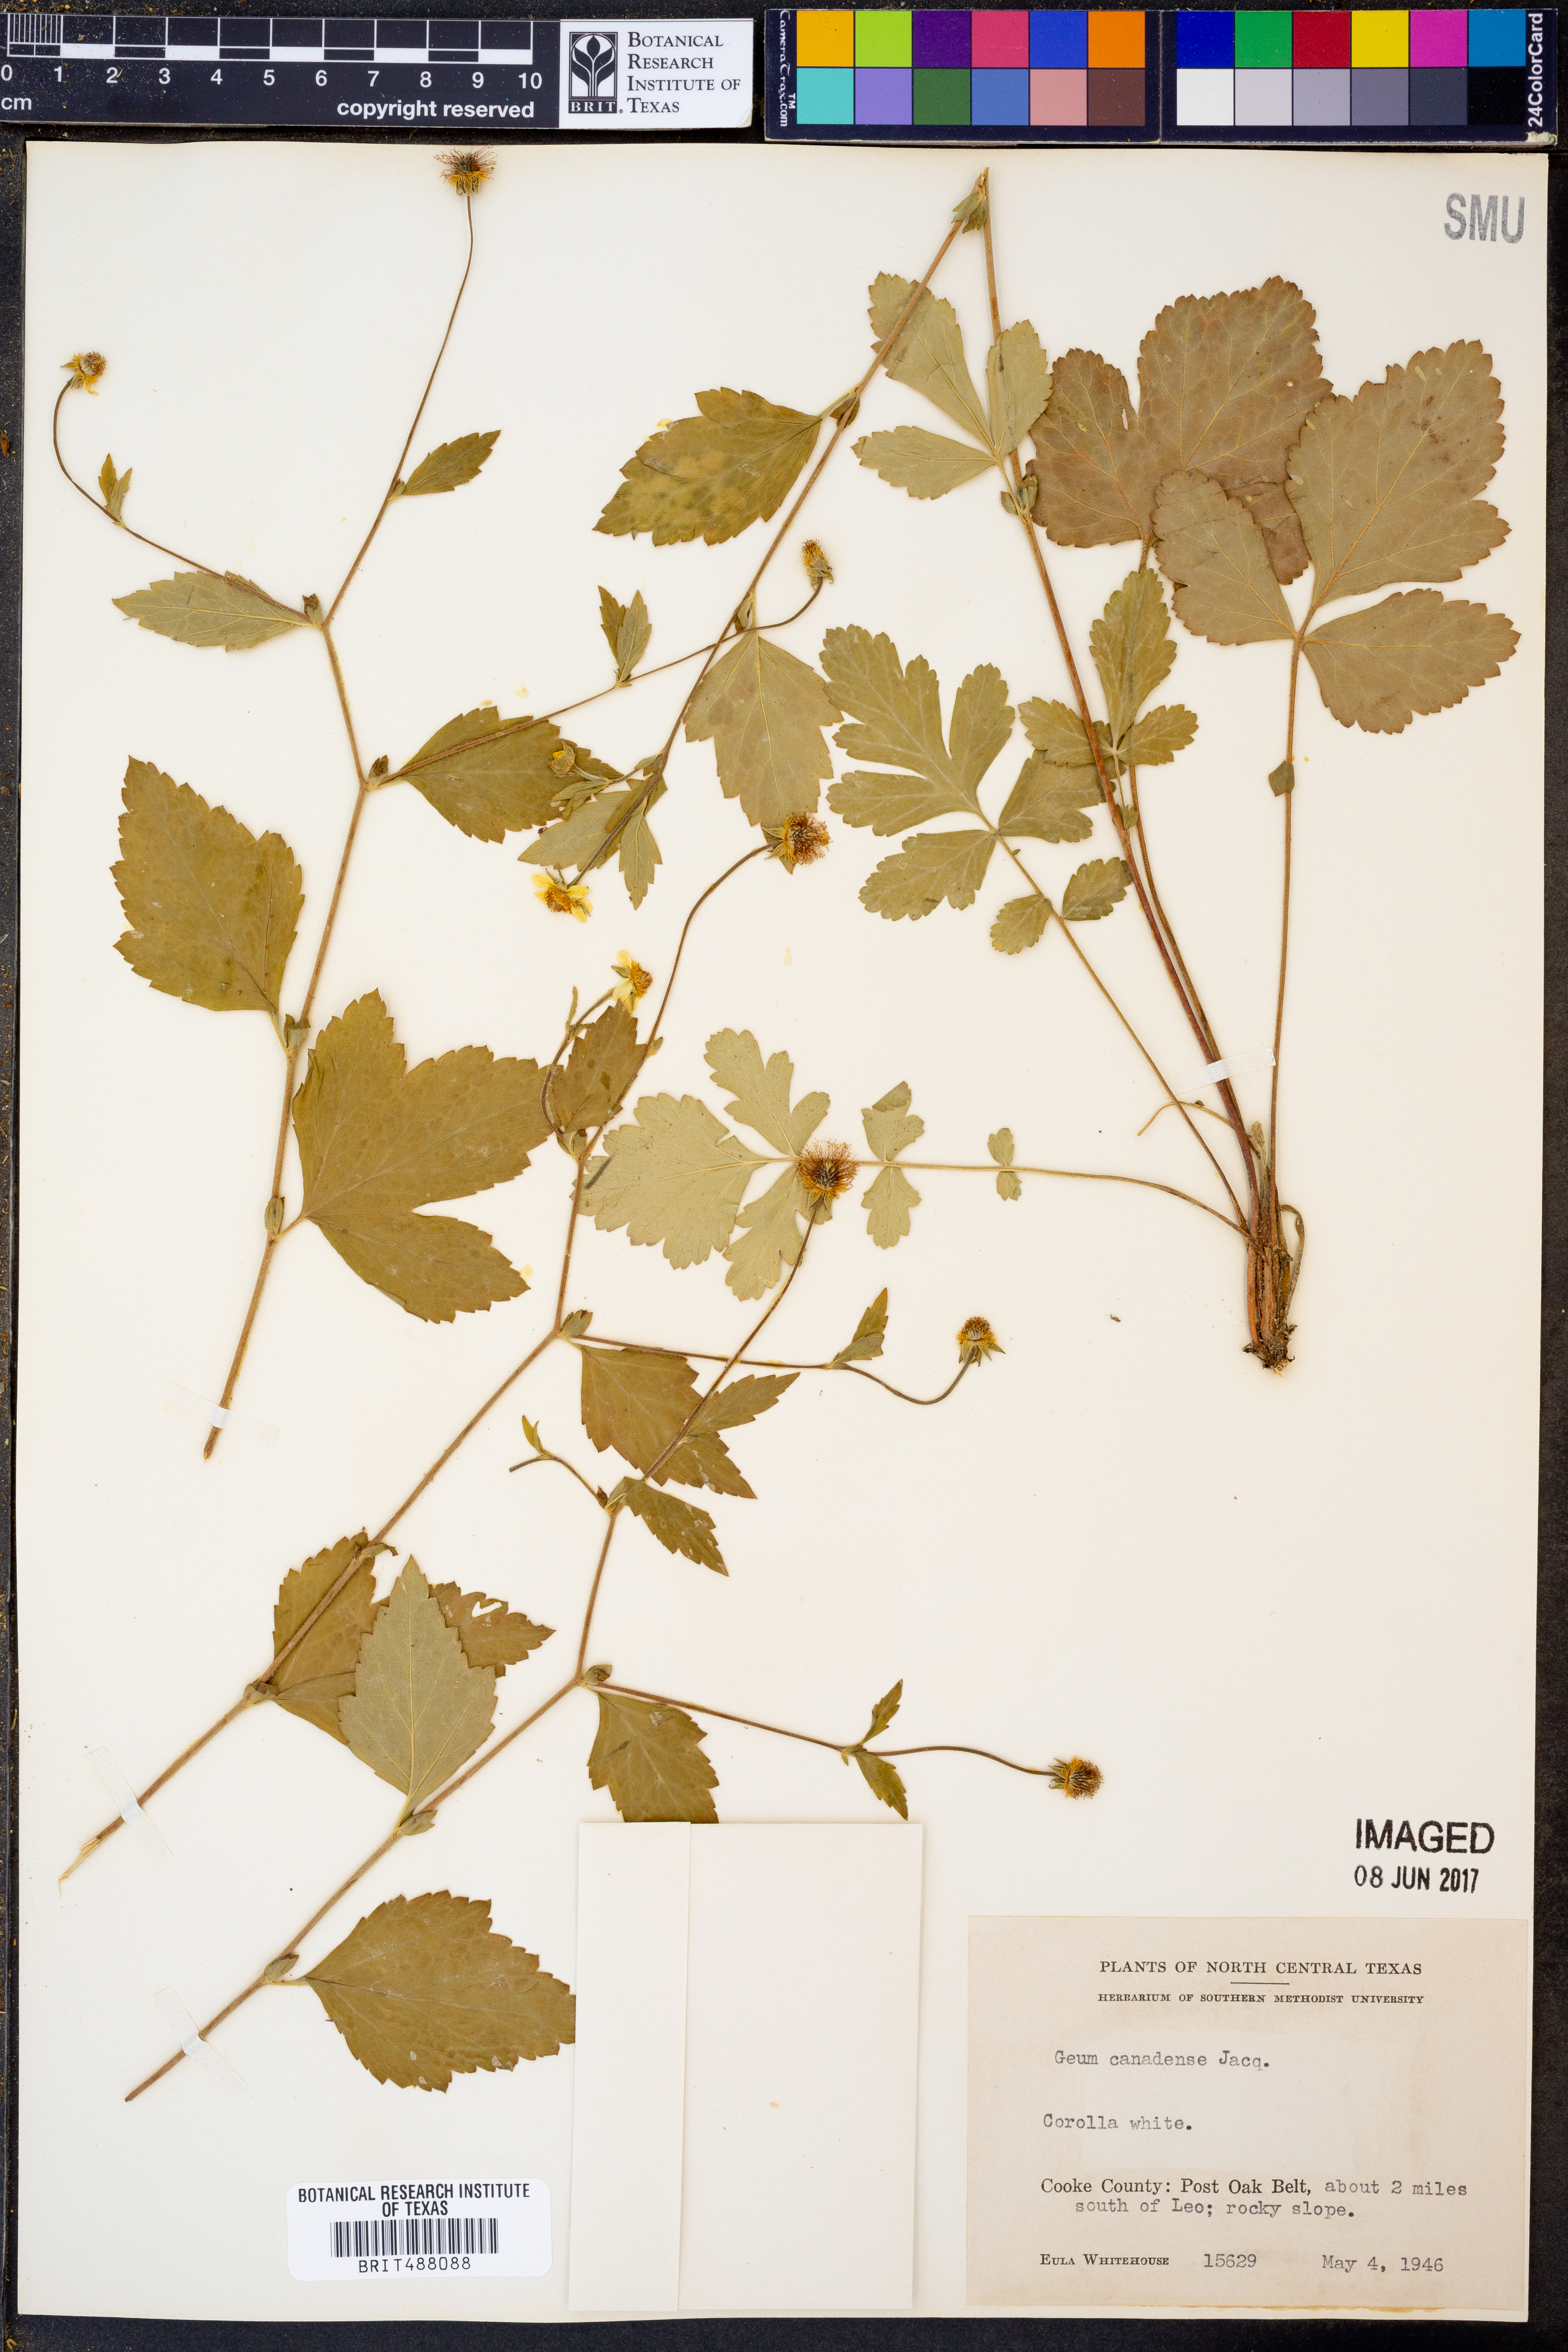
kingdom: Plantae
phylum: Tracheophyta
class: Magnoliopsida
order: Rosales
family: Rosaceae
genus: Geum
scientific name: Geum canadense
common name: White avens
